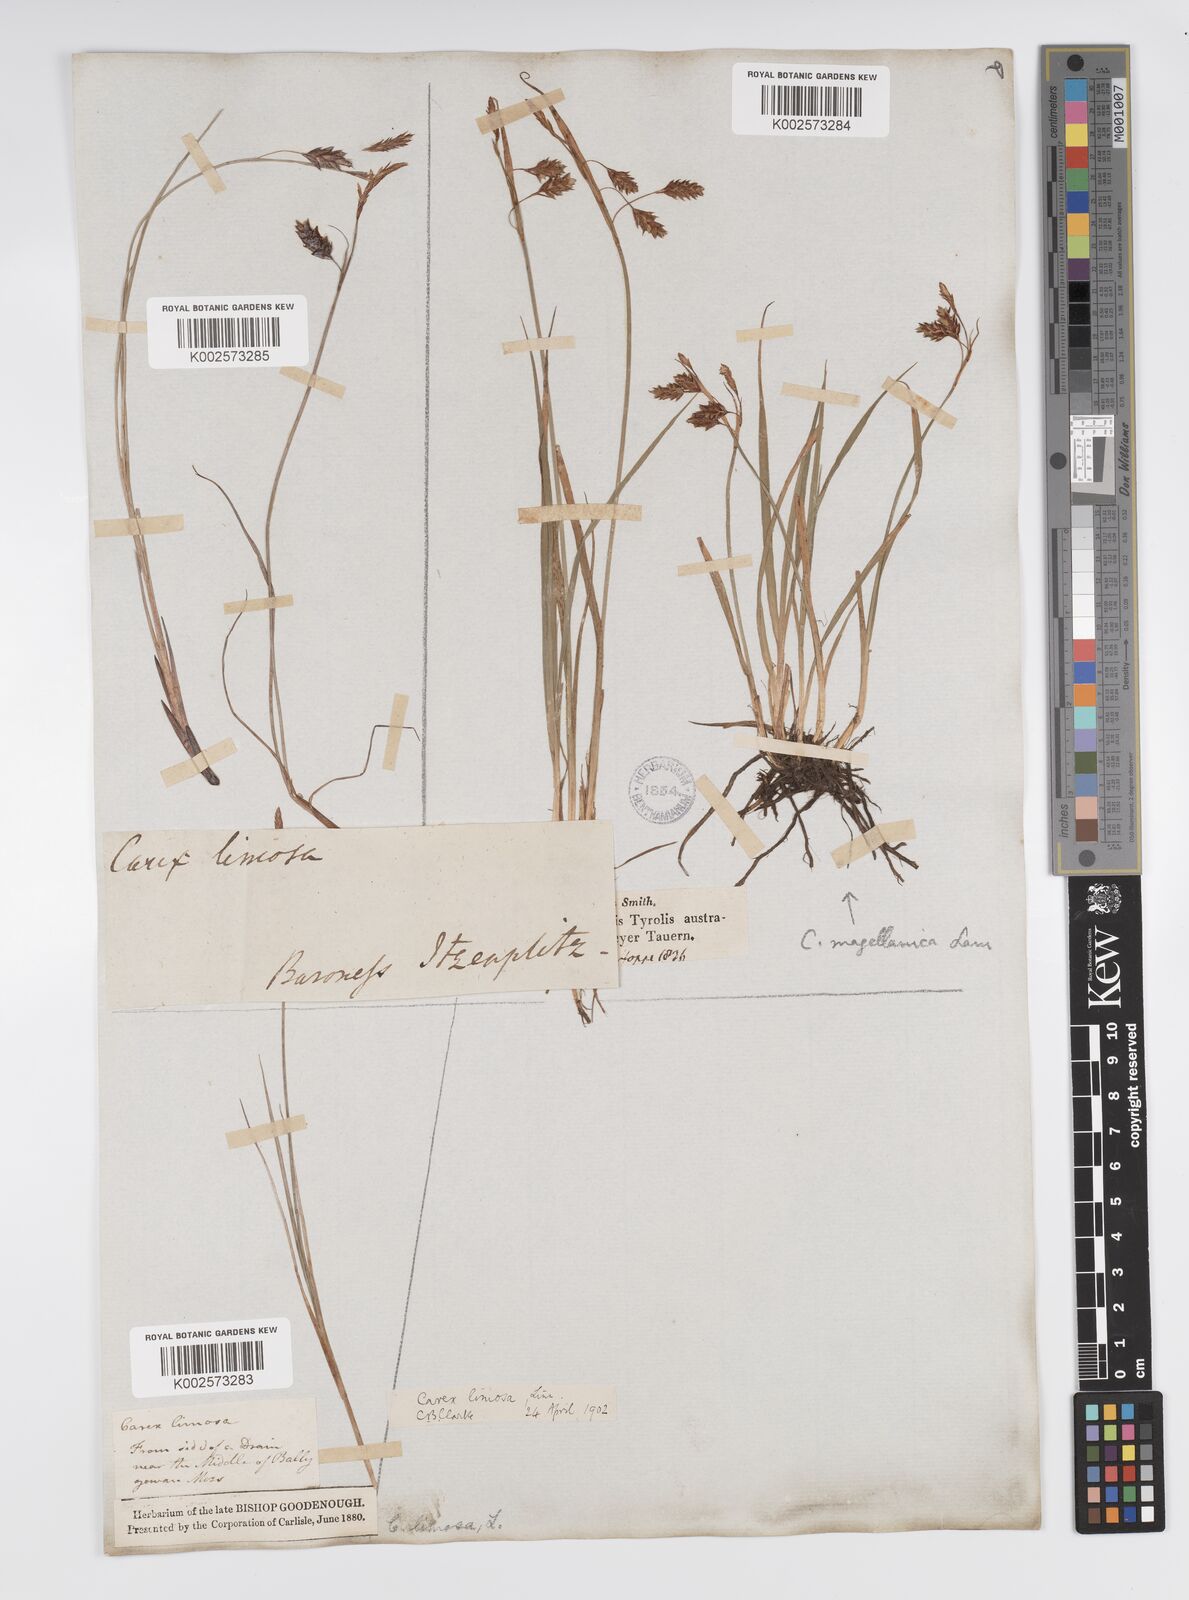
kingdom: Plantae
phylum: Tracheophyta
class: Liliopsida
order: Poales
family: Cyperaceae
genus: Carex
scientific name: Carex magellanica
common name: Bog sedge
